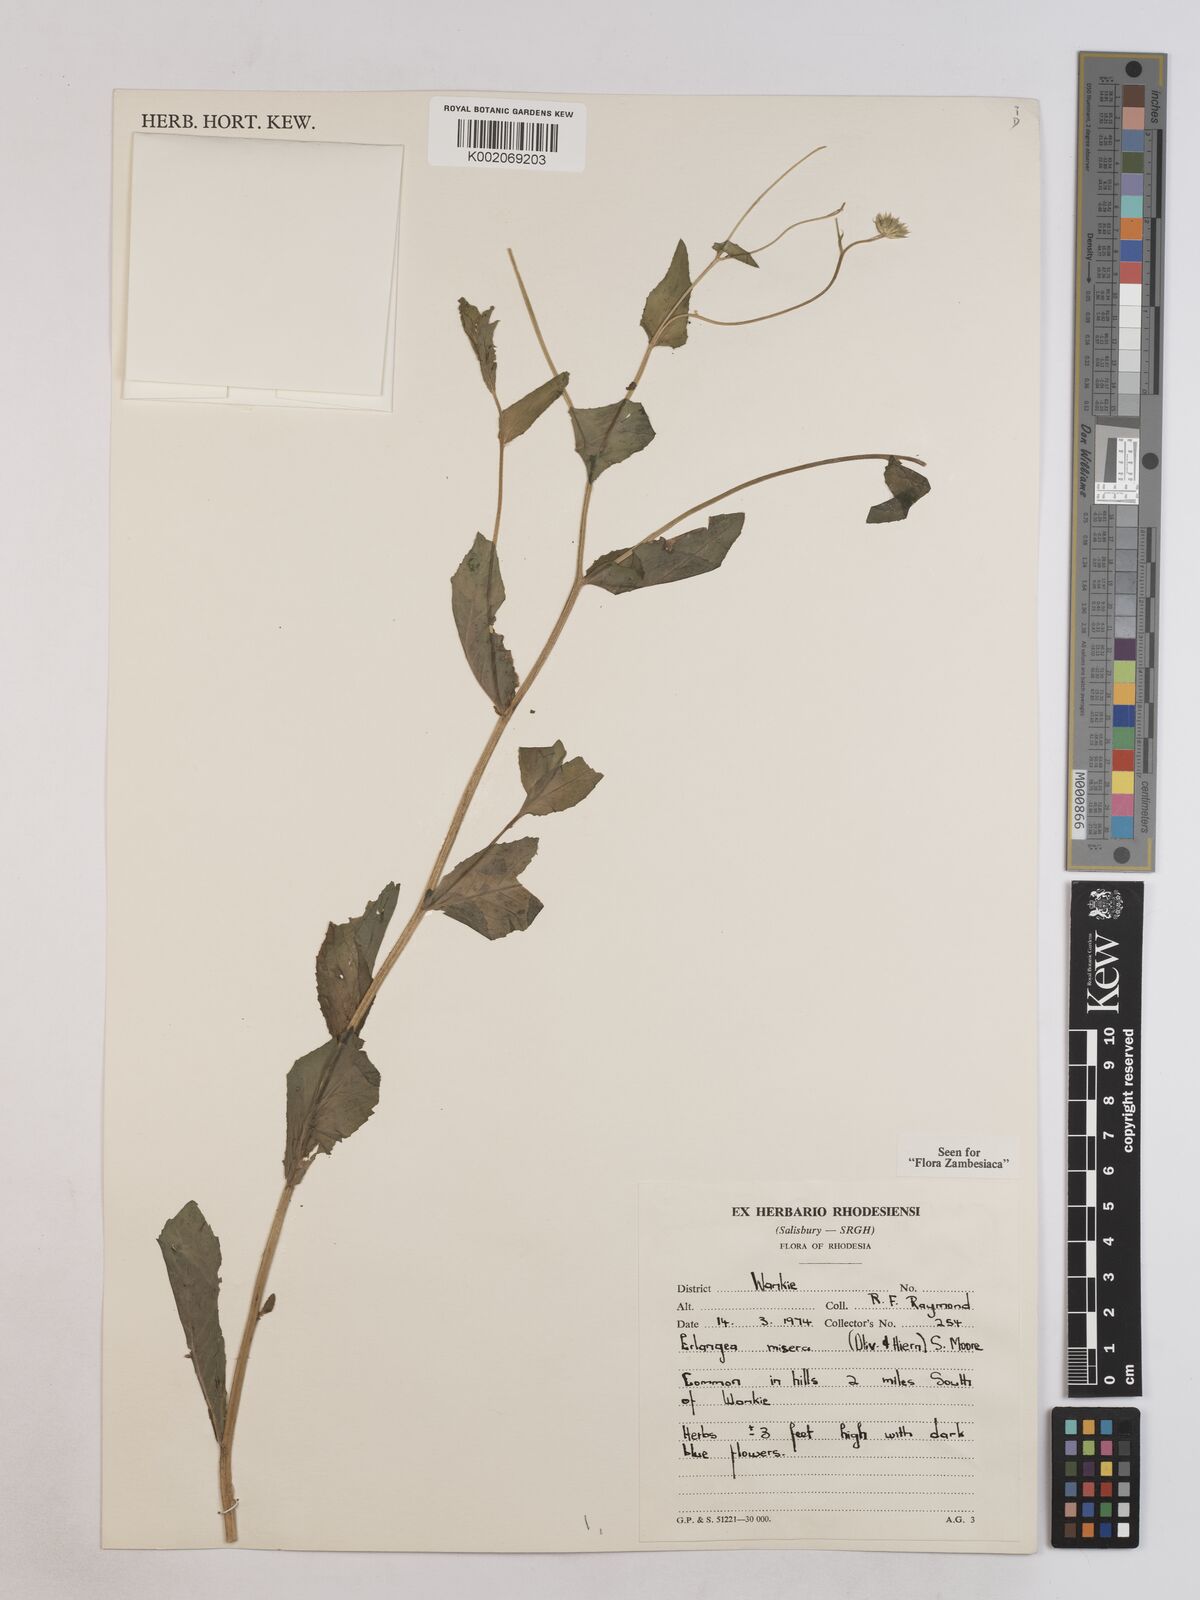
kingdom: Plantae
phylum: Tracheophyta
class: Magnoliopsida
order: Asterales
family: Asteraceae
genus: Erlangea
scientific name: Erlangea misera
